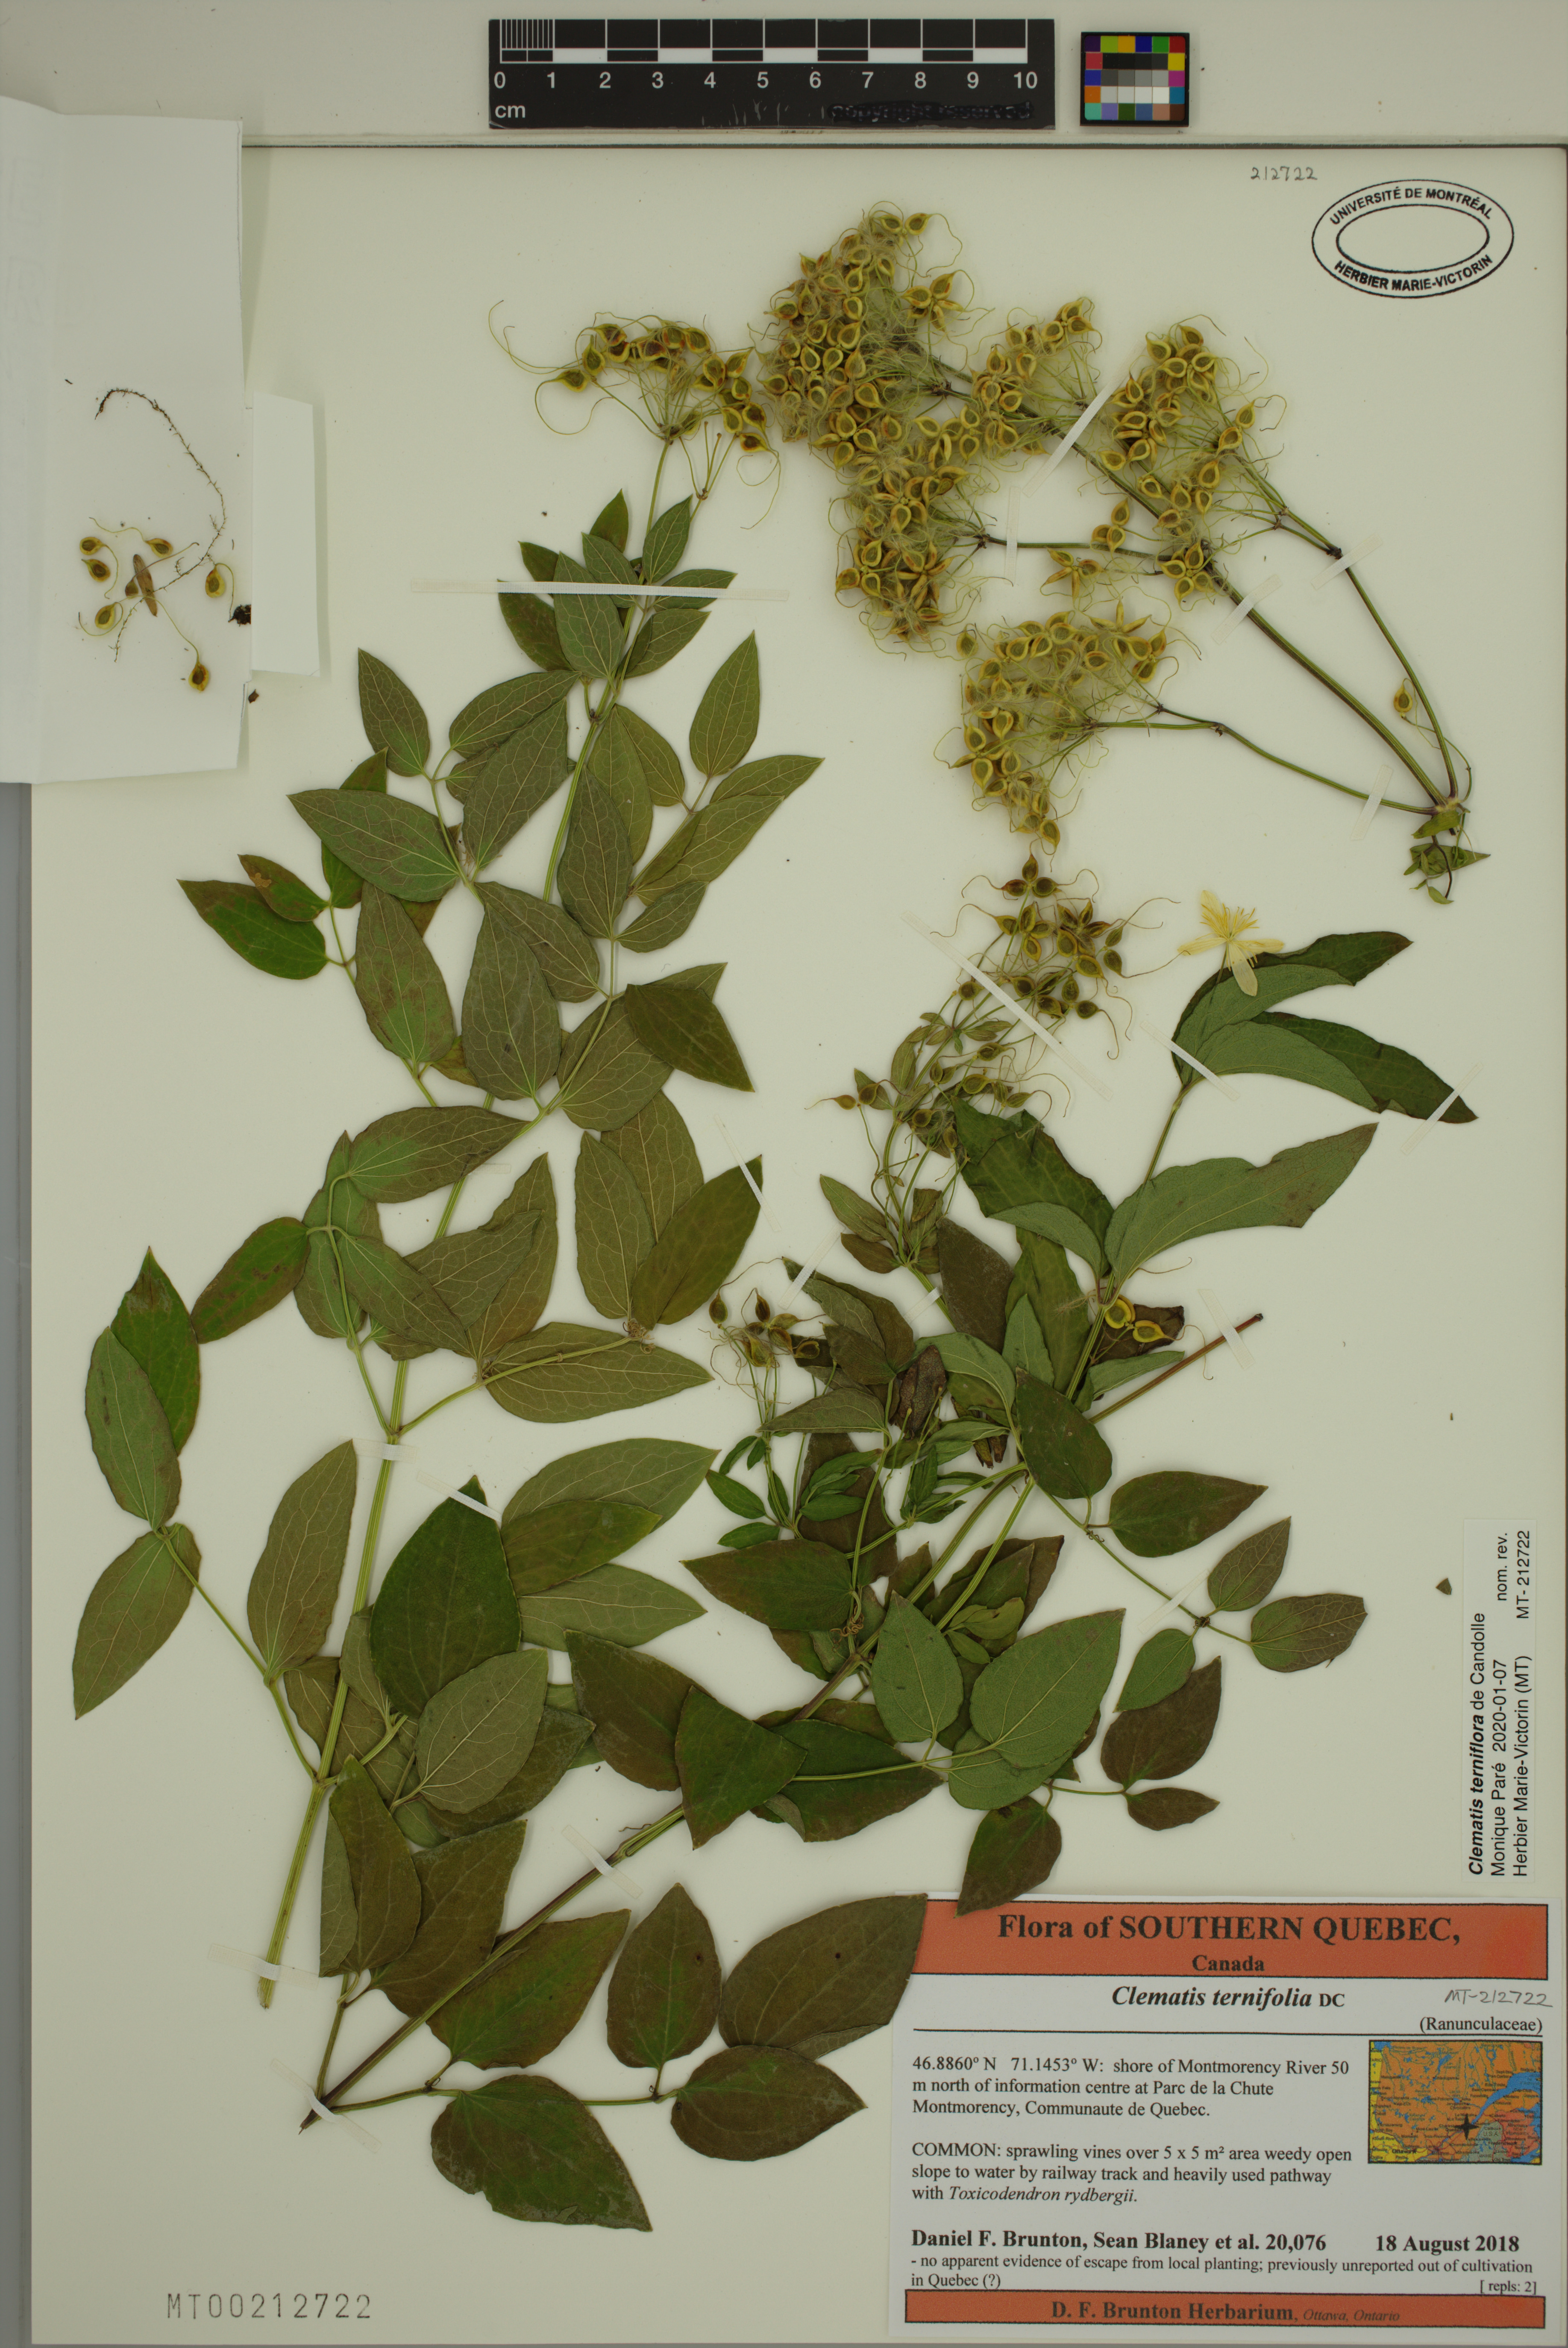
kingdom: Plantae
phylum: Tracheophyta
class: Magnoliopsida
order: Ranunculales
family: Ranunculaceae
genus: Clematis
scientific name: Clematis terniflora
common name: Sweet autumn clematis
